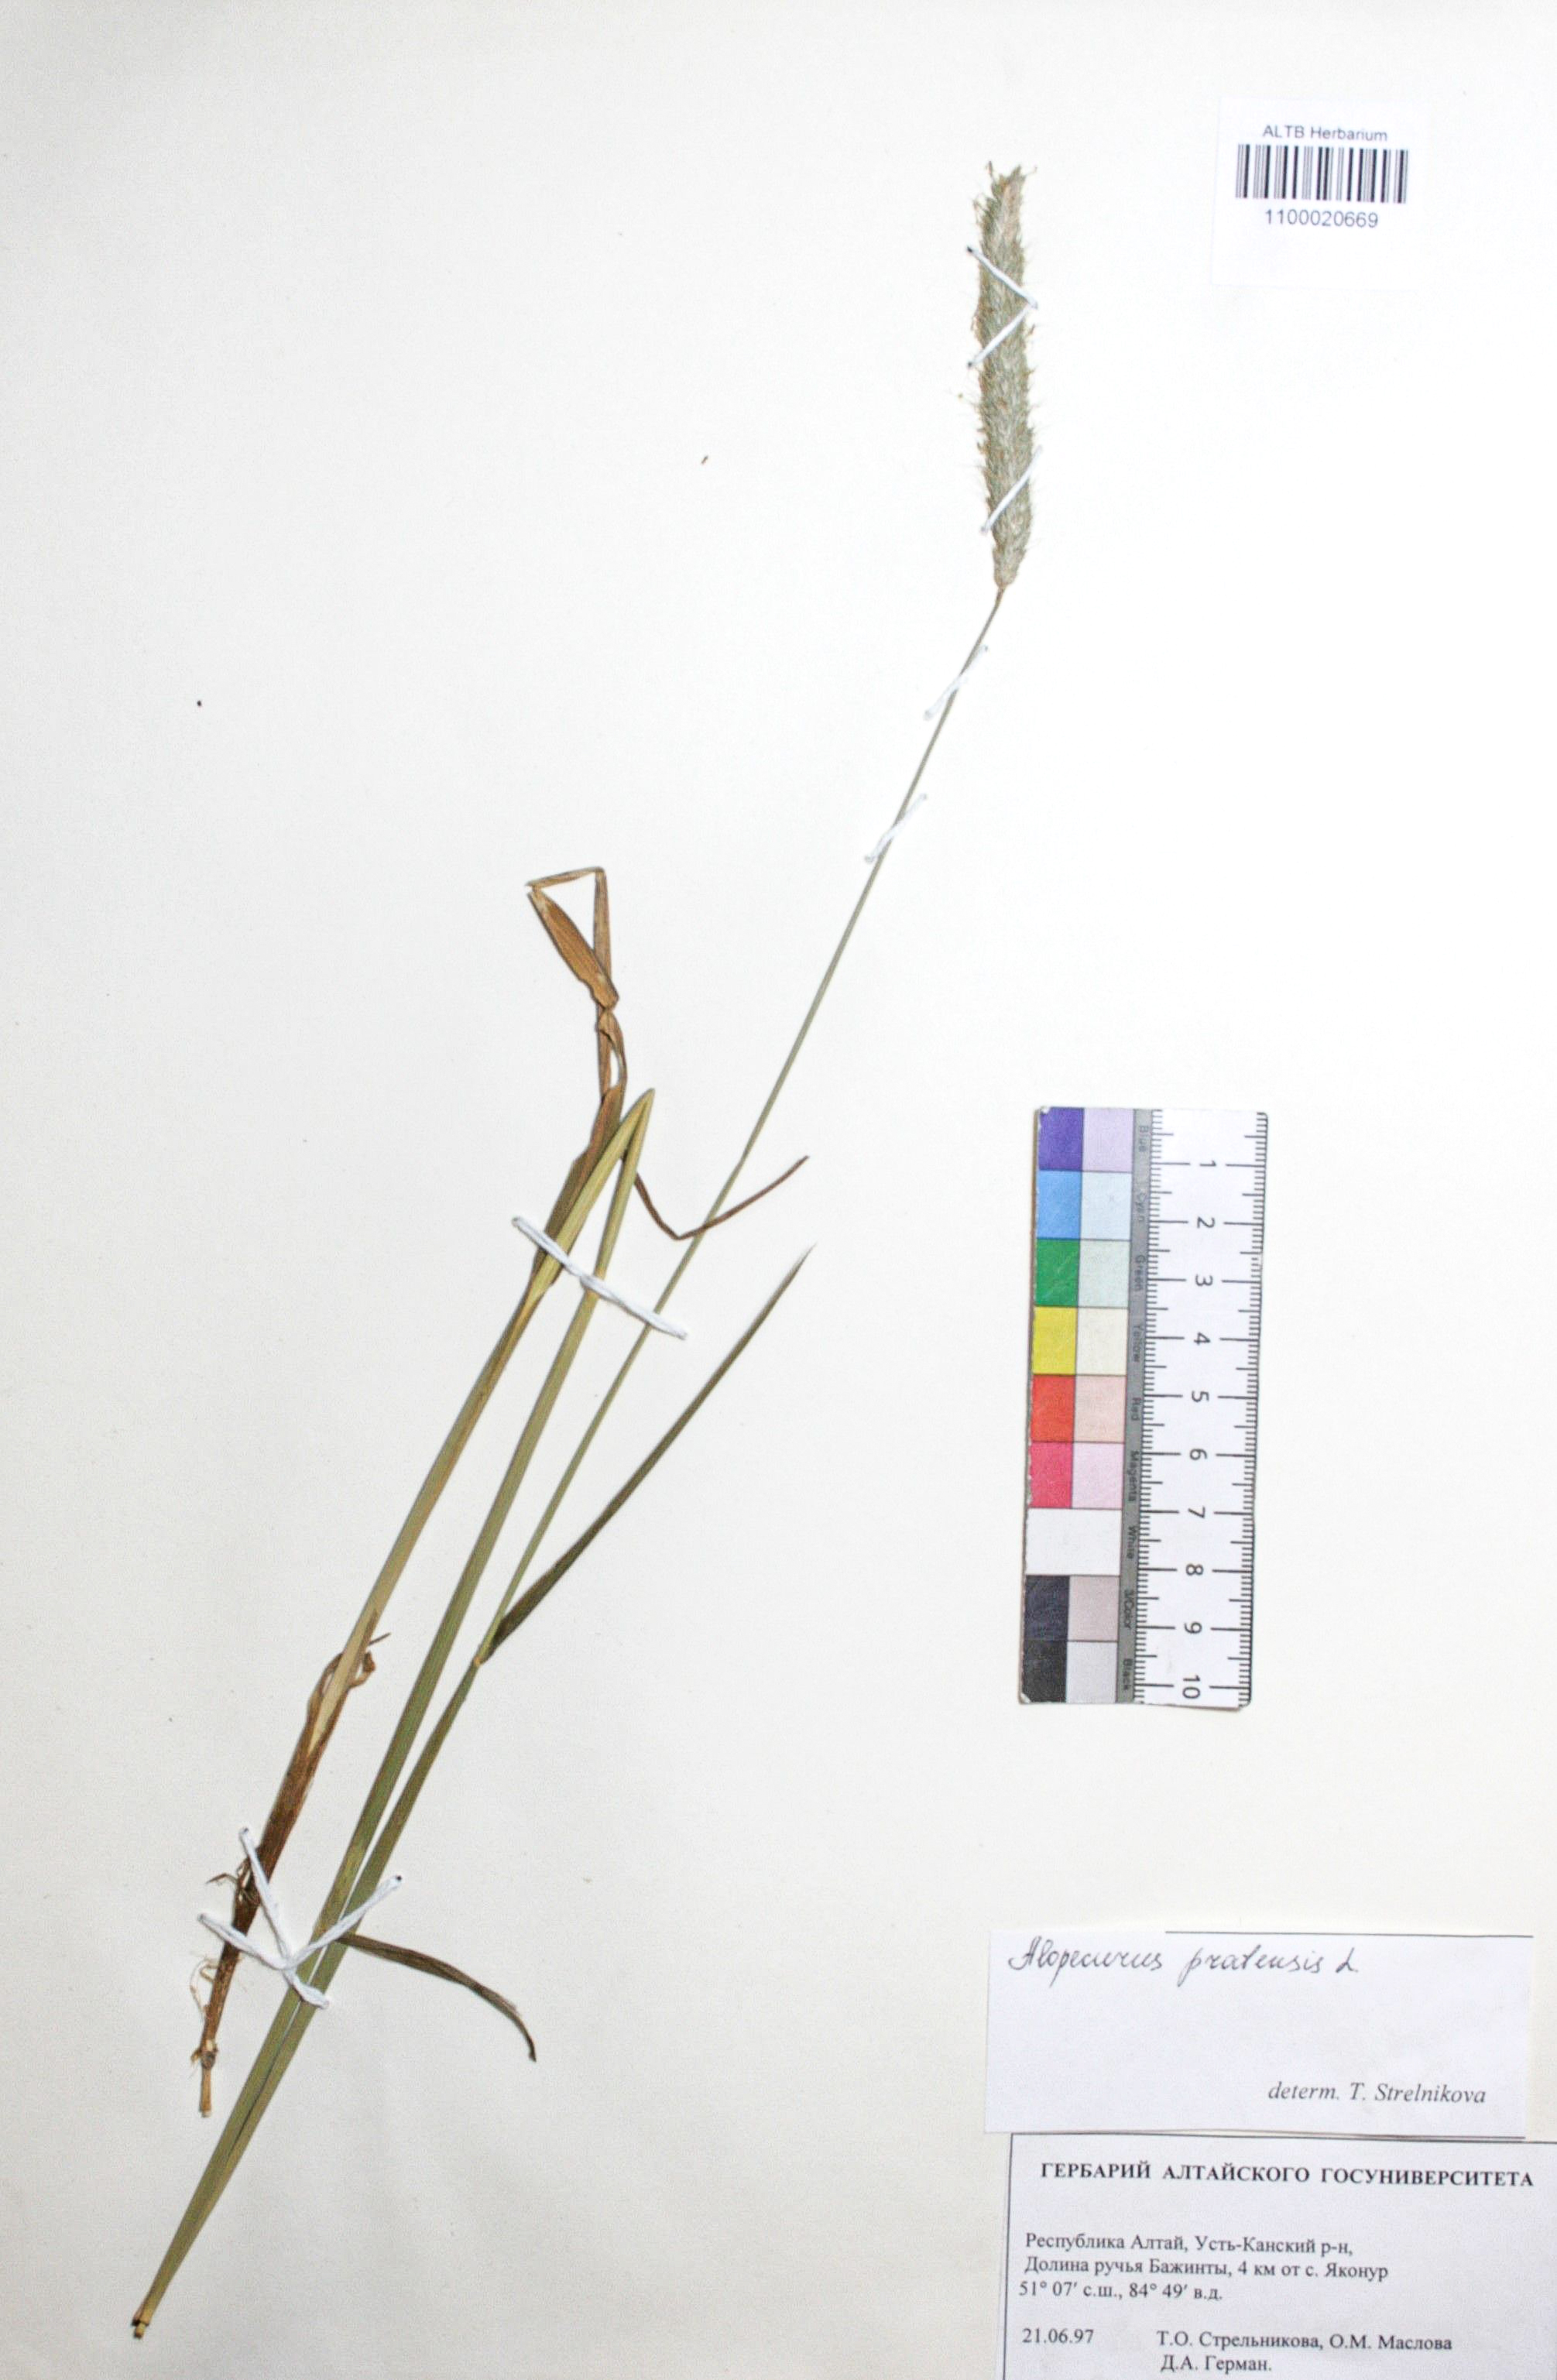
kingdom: Plantae
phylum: Tracheophyta
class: Liliopsida
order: Poales
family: Poaceae
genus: Alopecurus
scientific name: Alopecurus pratensis
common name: Meadow foxtail
